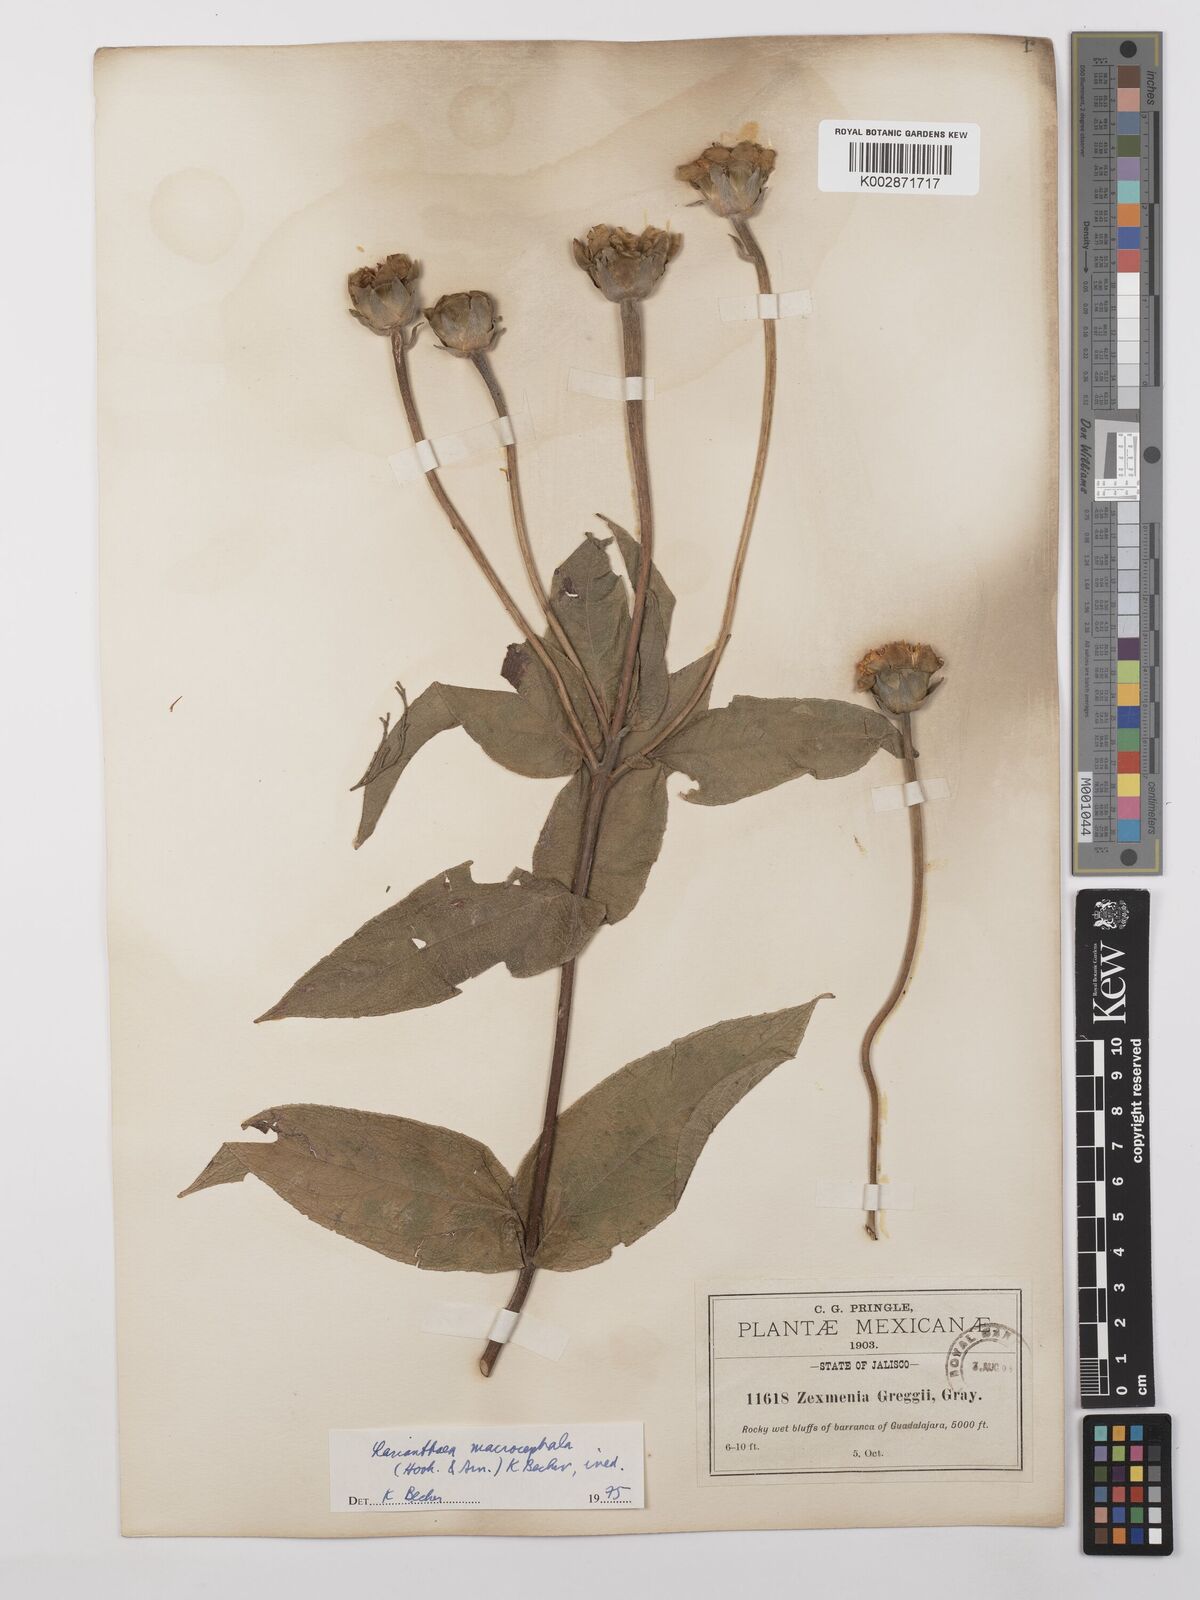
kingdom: Plantae
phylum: Tracheophyta
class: Magnoliopsida
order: Asterales
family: Asteraceae
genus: Lasianthaea
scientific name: Lasianthaea macrocephala
